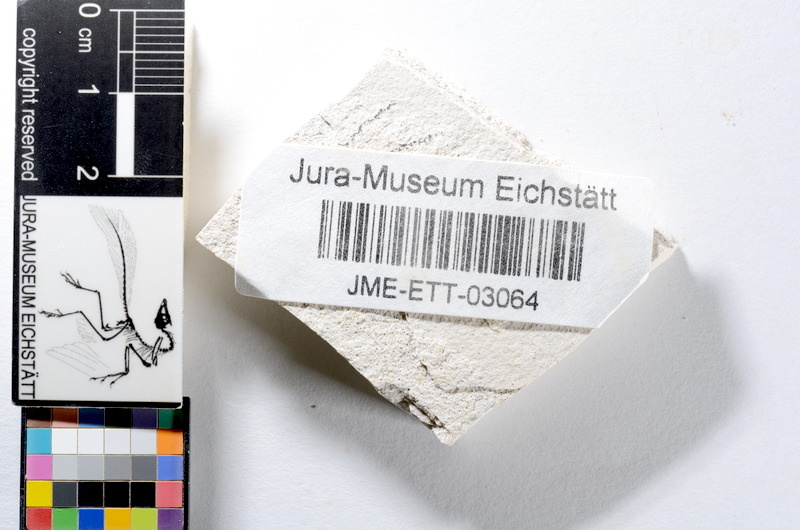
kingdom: Animalia
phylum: Chordata
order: Salmoniformes
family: Orthogonikleithridae
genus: Orthogonikleithrus
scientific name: Orthogonikleithrus hoelli
